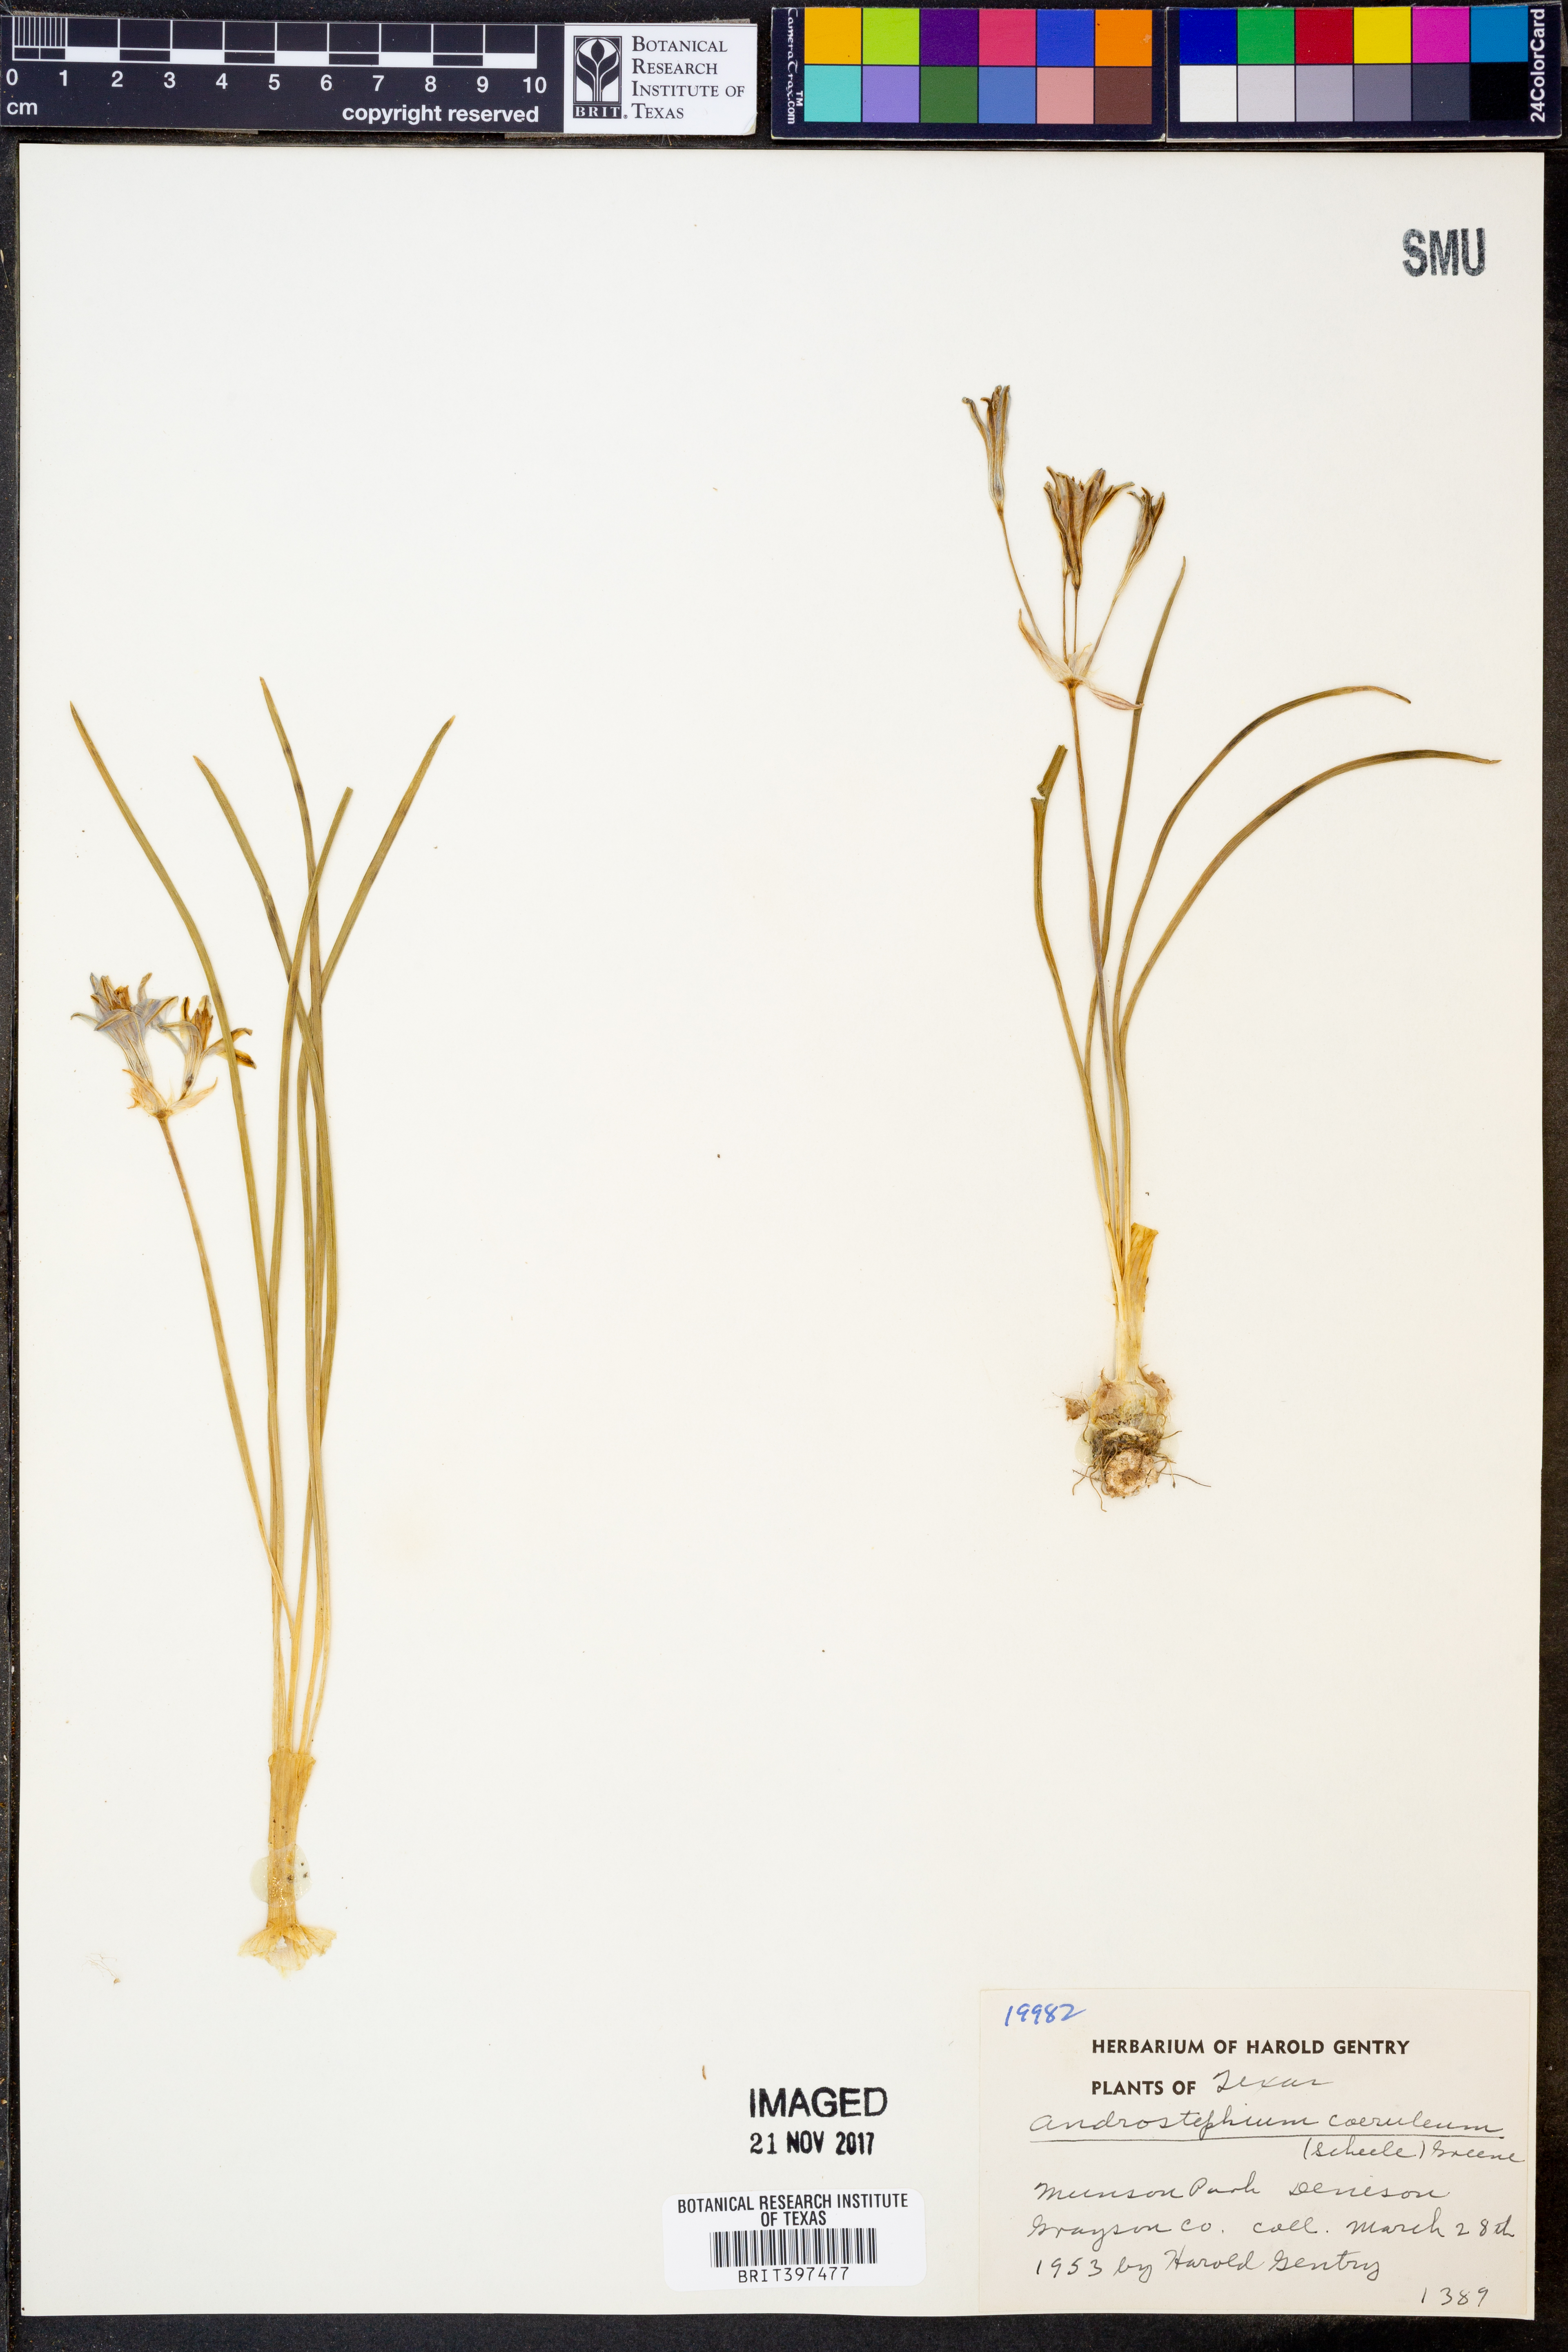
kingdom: Plantae
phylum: Tracheophyta
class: Liliopsida
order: Asparagales
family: Asparagaceae
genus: Androstephium
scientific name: Androstephium caeruleum
